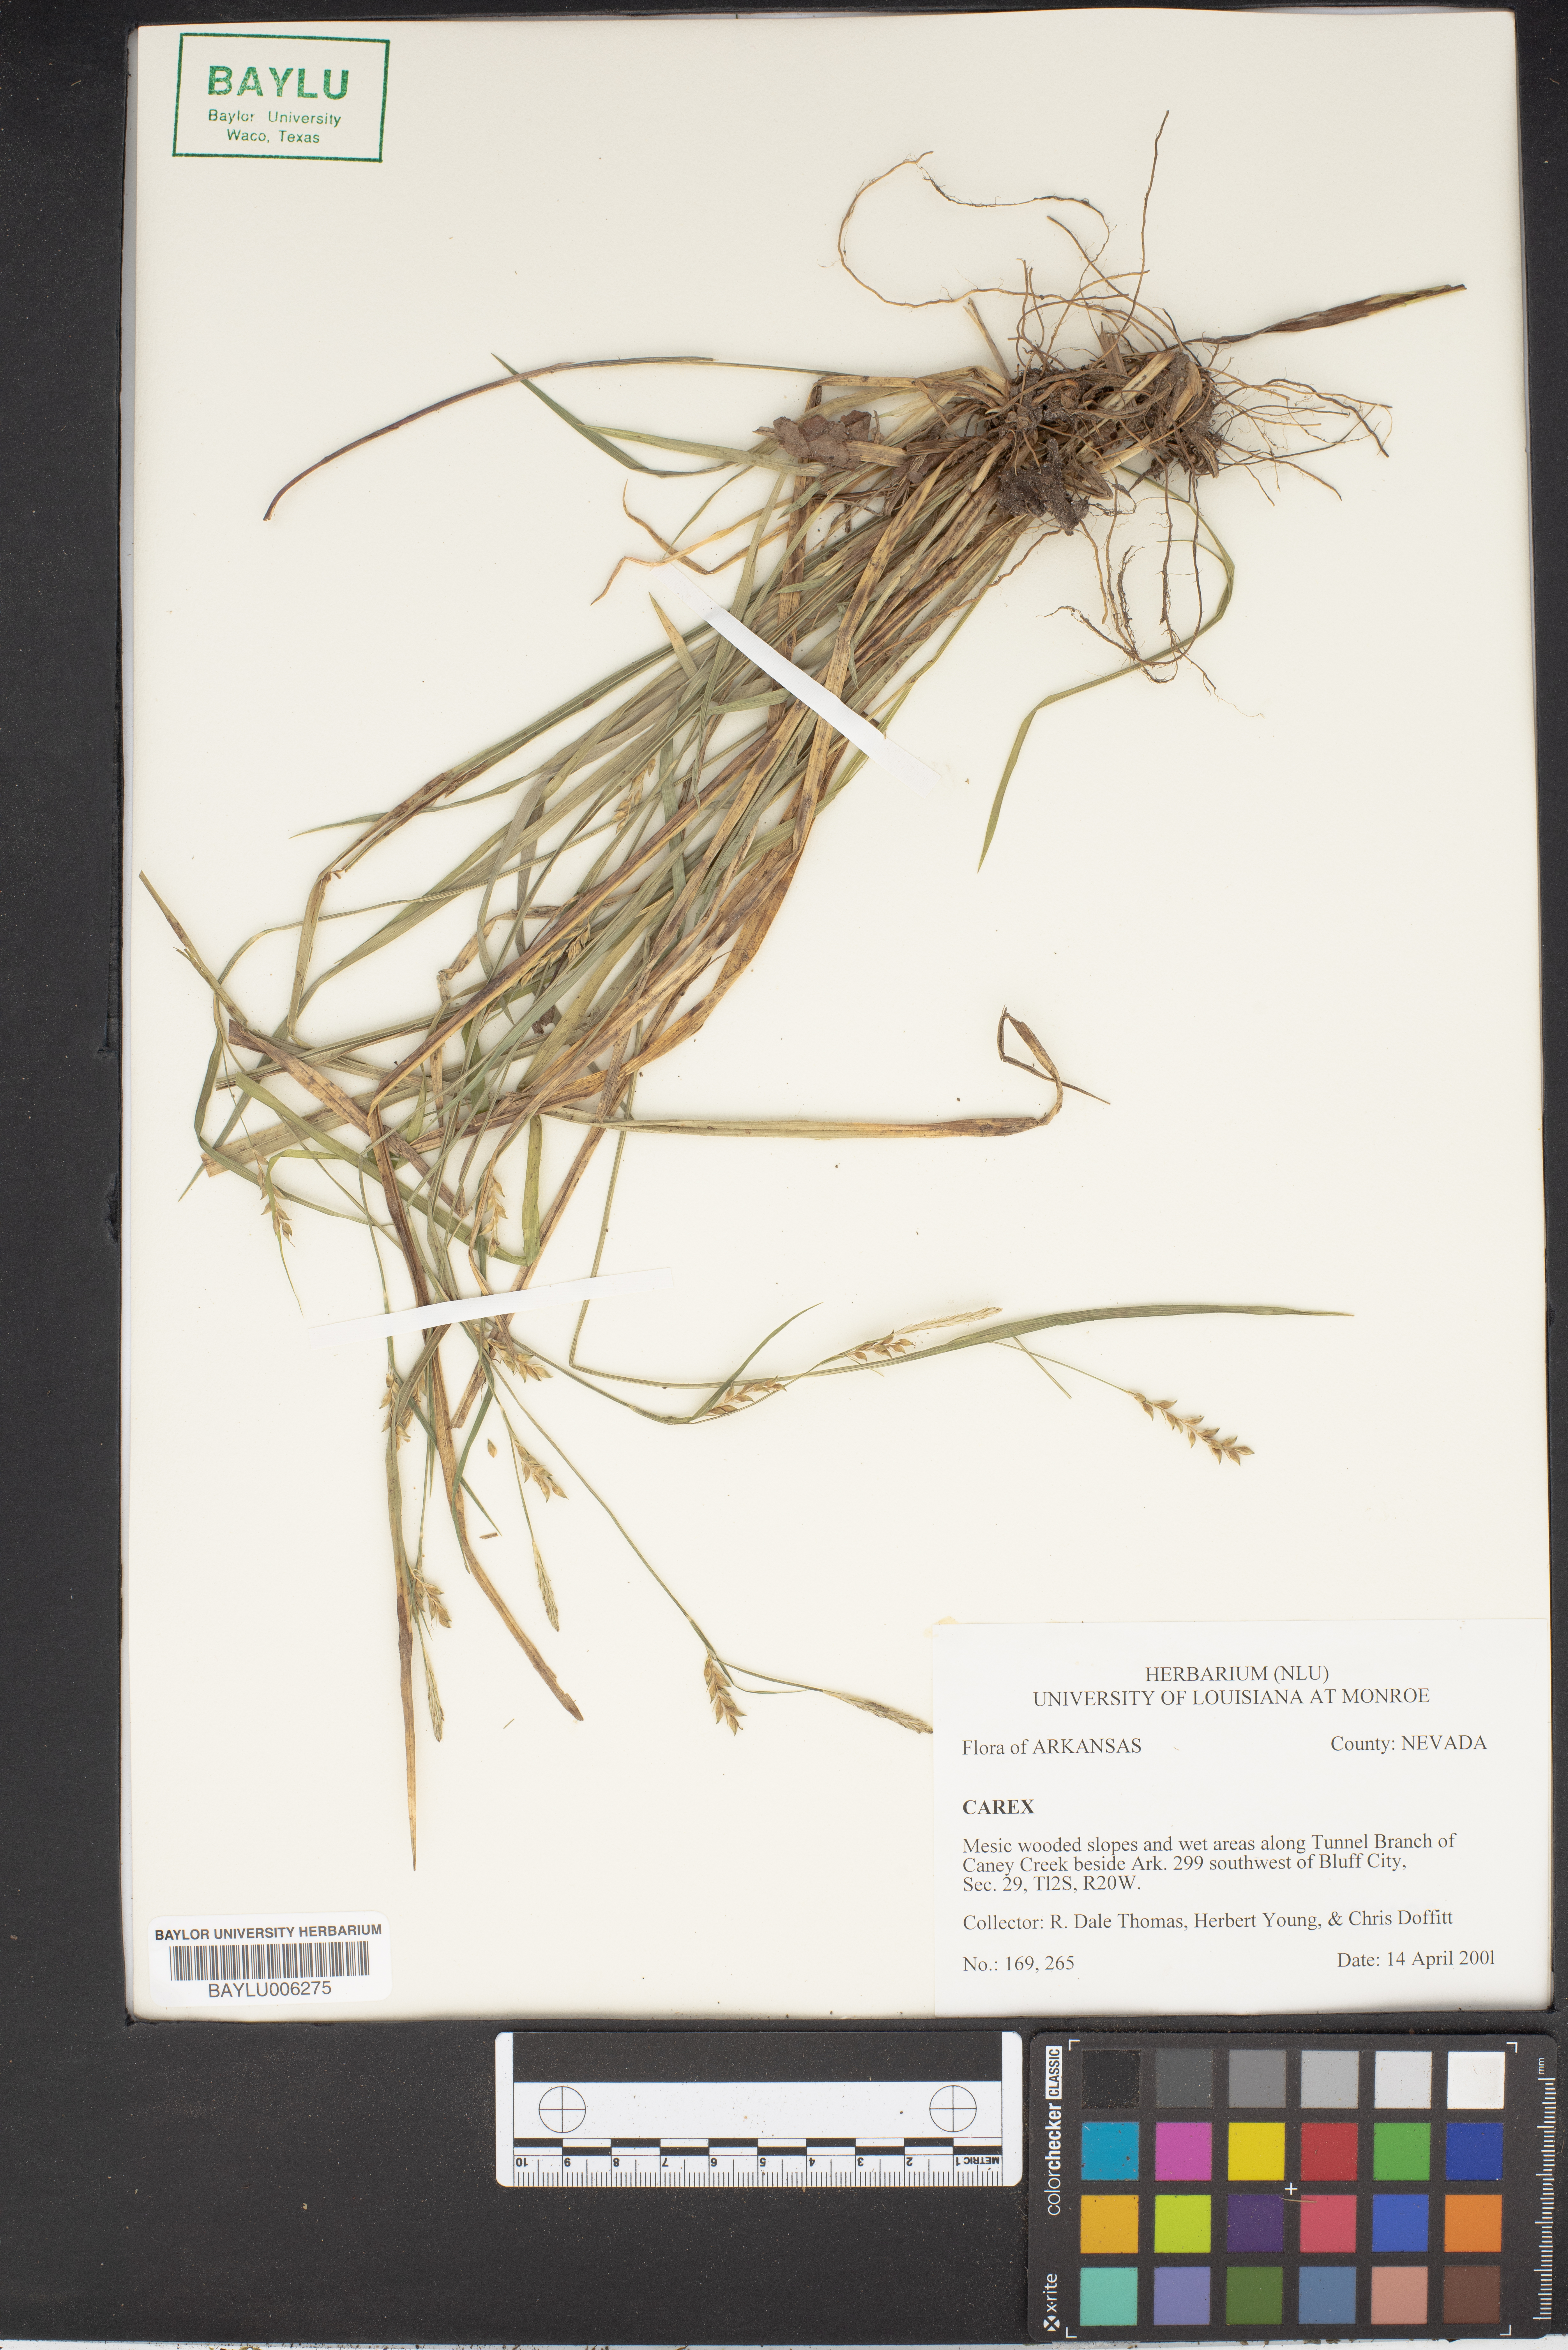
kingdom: Plantae
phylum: Tracheophyta
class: Liliopsida
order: Poales
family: Cyperaceae
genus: Carex
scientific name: Carex
